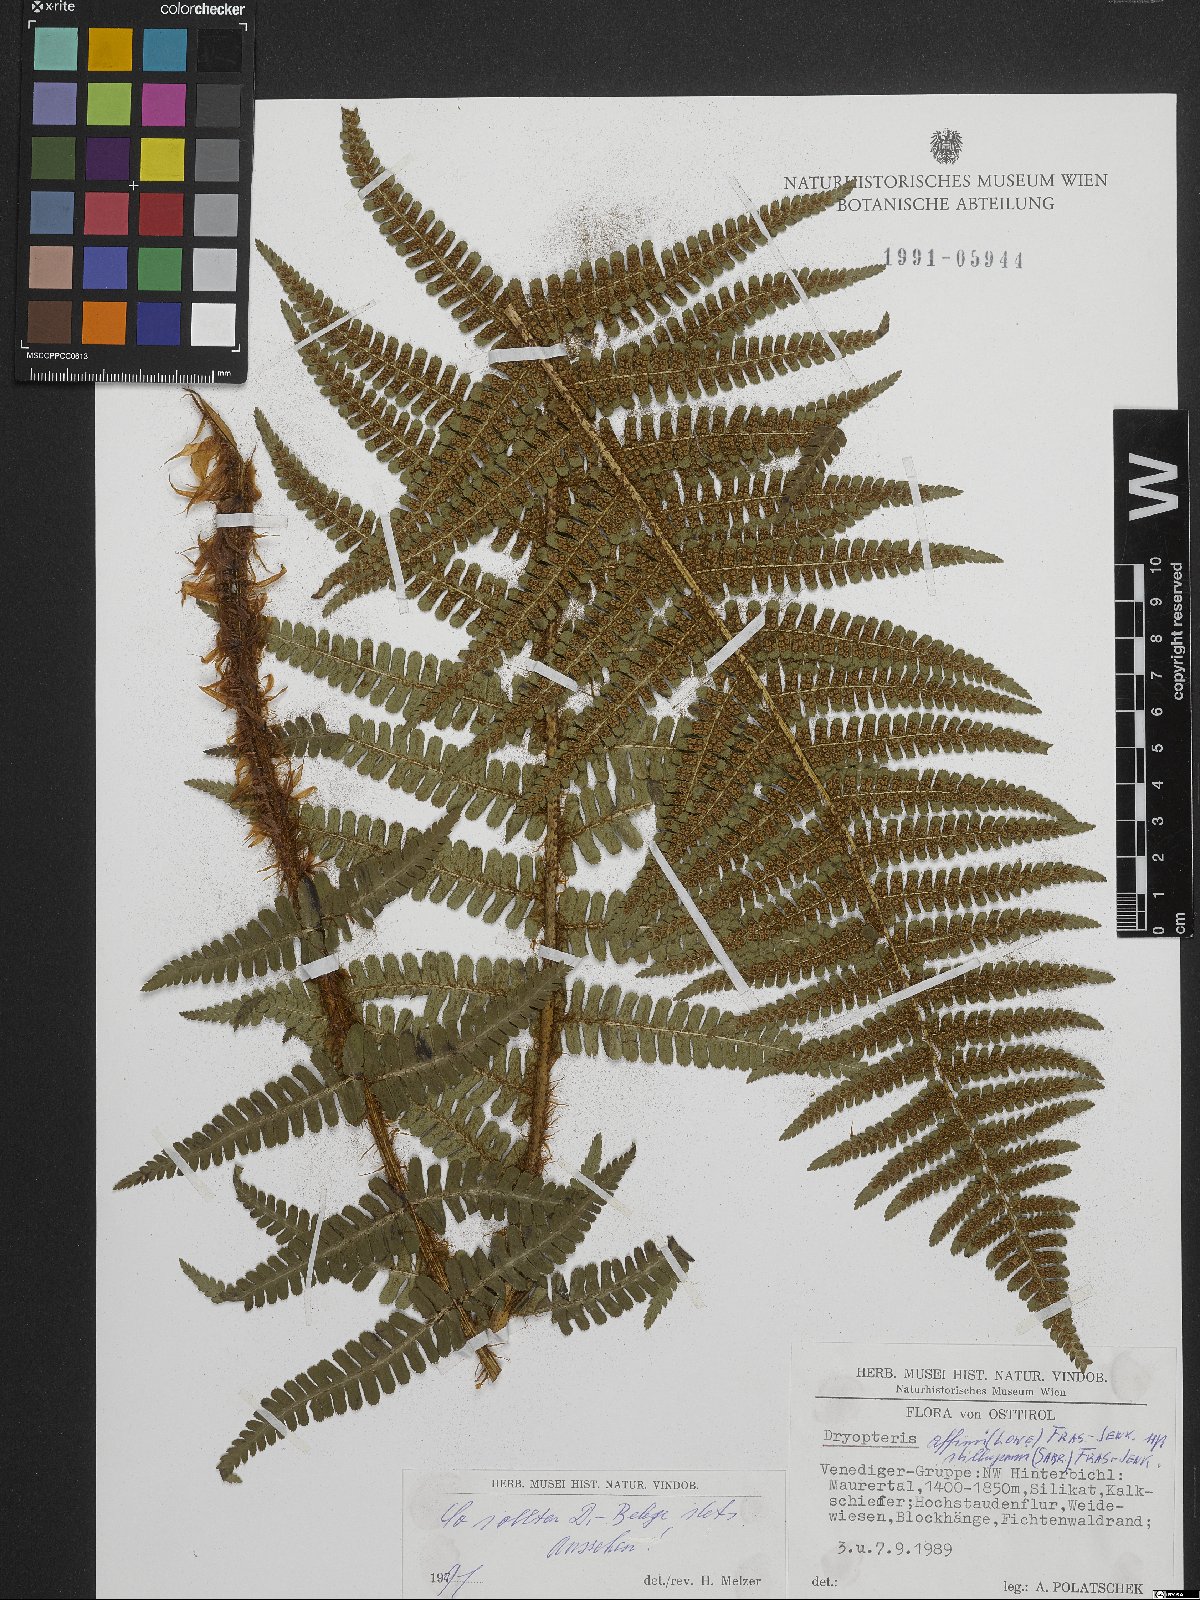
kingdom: Plantae
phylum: Tracheophyta
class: Polypodiopsida
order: Polypodiales
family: Dryopteridaceae
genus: Dryopteris
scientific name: Dryopteris borreri
